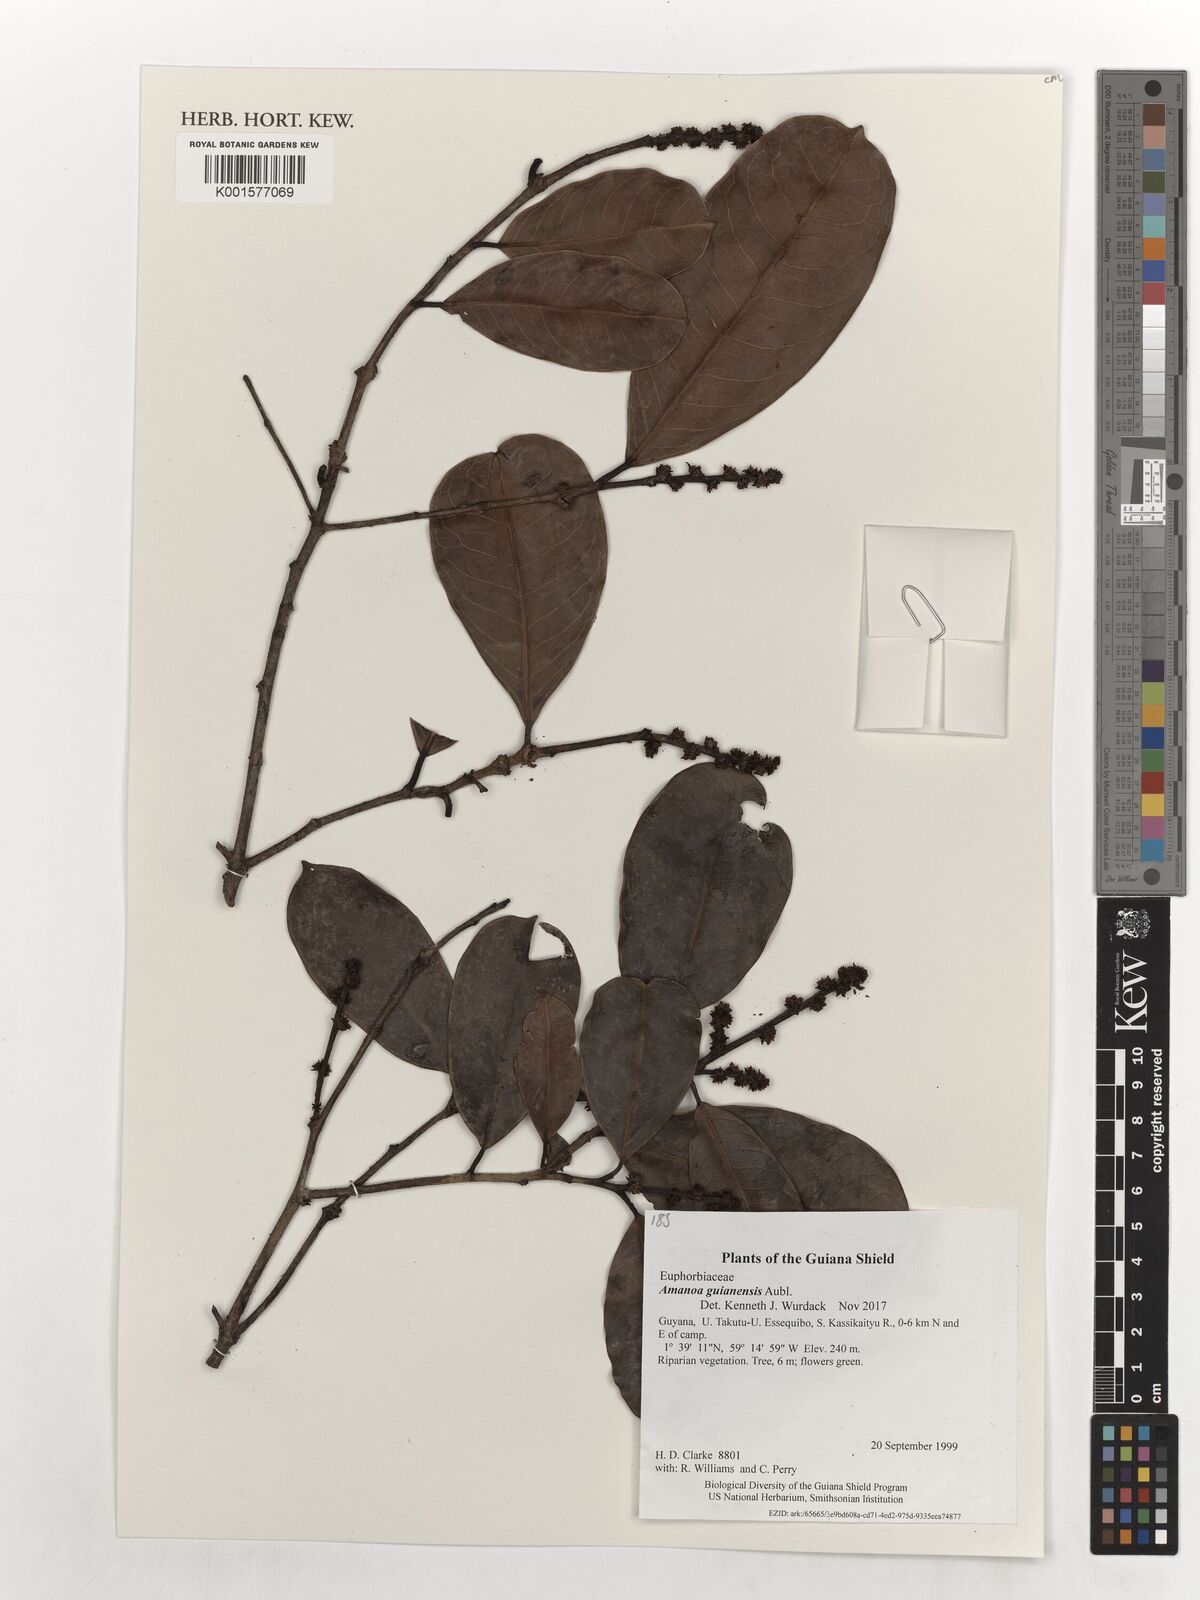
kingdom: Plantae
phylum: Tracheophyta
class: Magnoliopsida
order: Malpighiales
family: Phyllanthaceae
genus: Amanoa
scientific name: Amanoa guianensis
